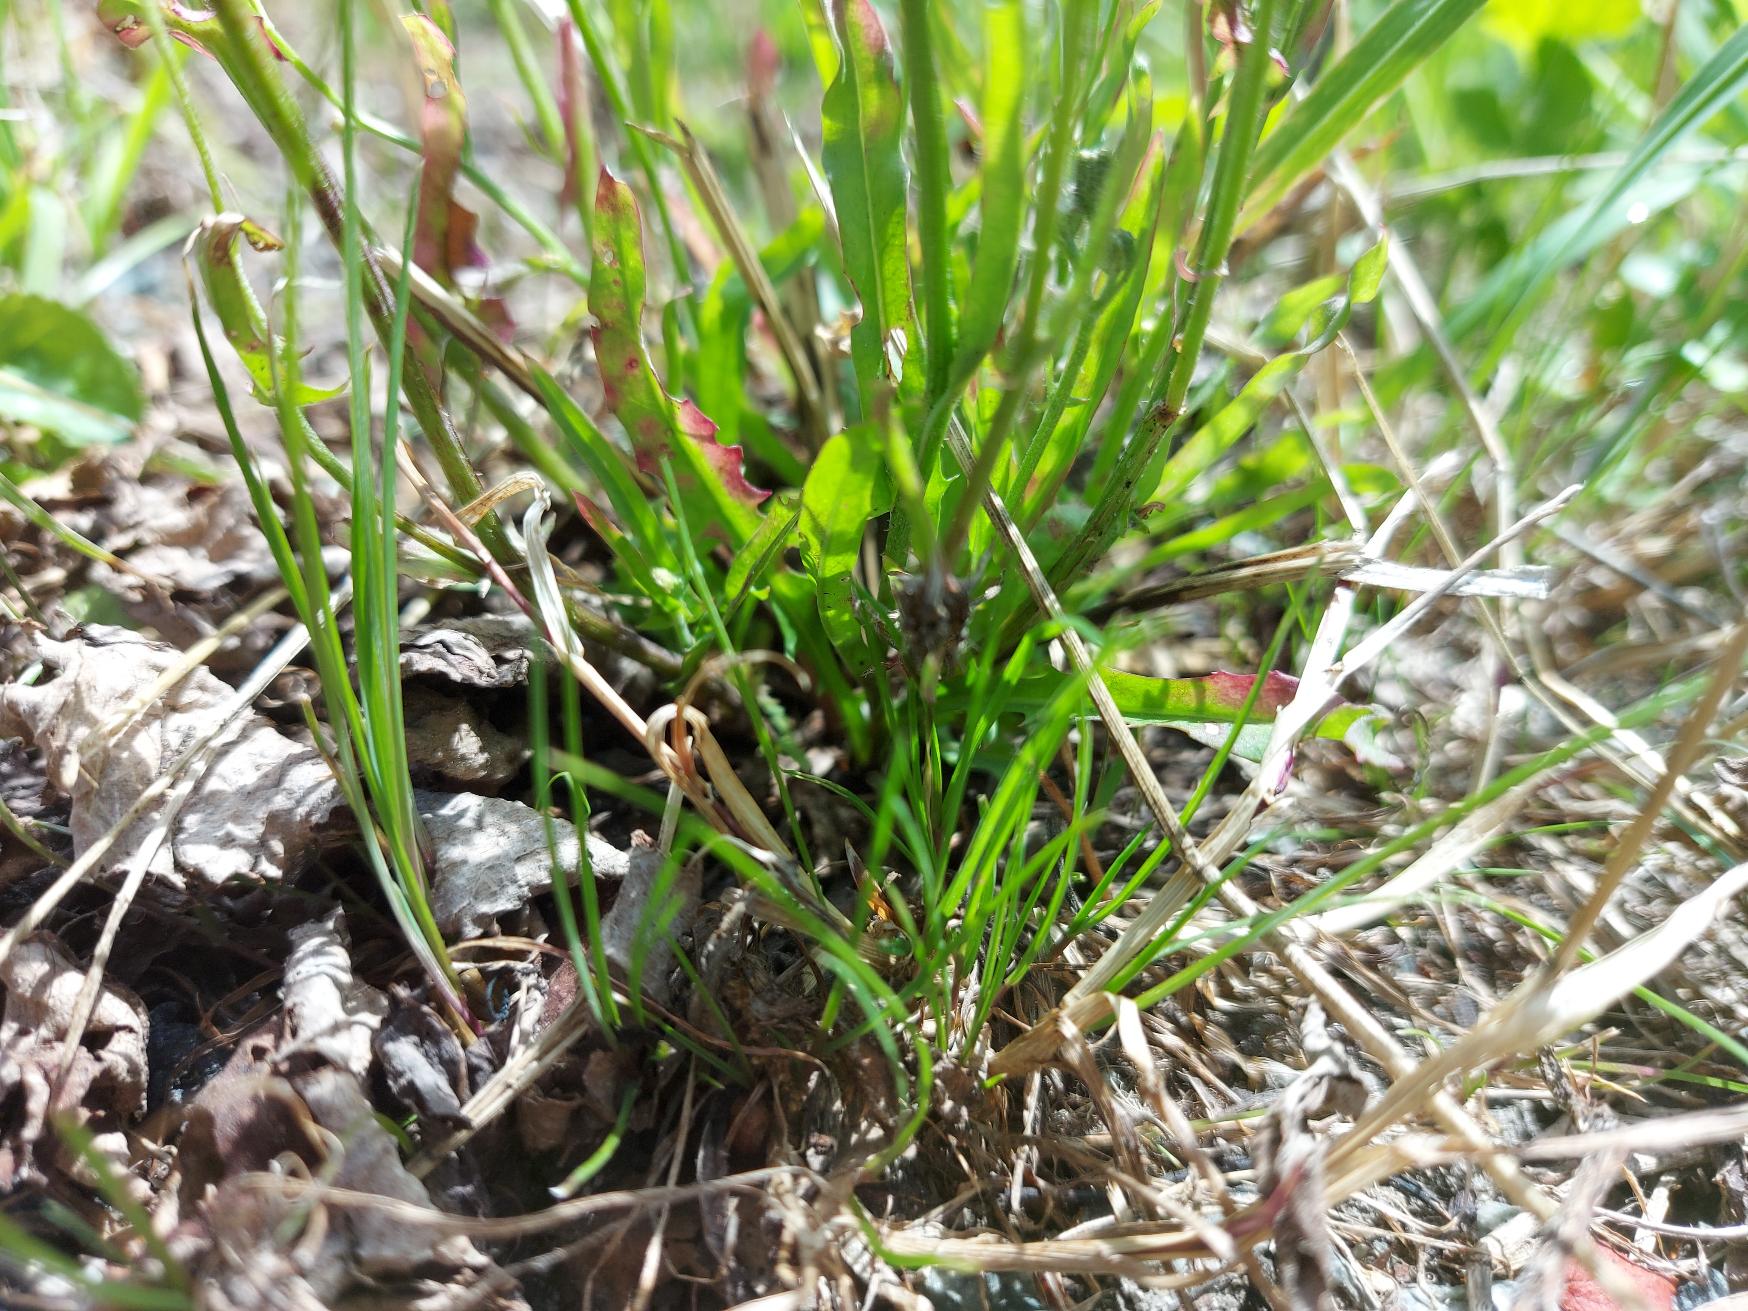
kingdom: Plantae
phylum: Tracheophyta
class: Magnoliopsida
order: Asterales
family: Asteraceae
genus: Crepis
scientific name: Crepis capillaris
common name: Grøn høgeskæg
